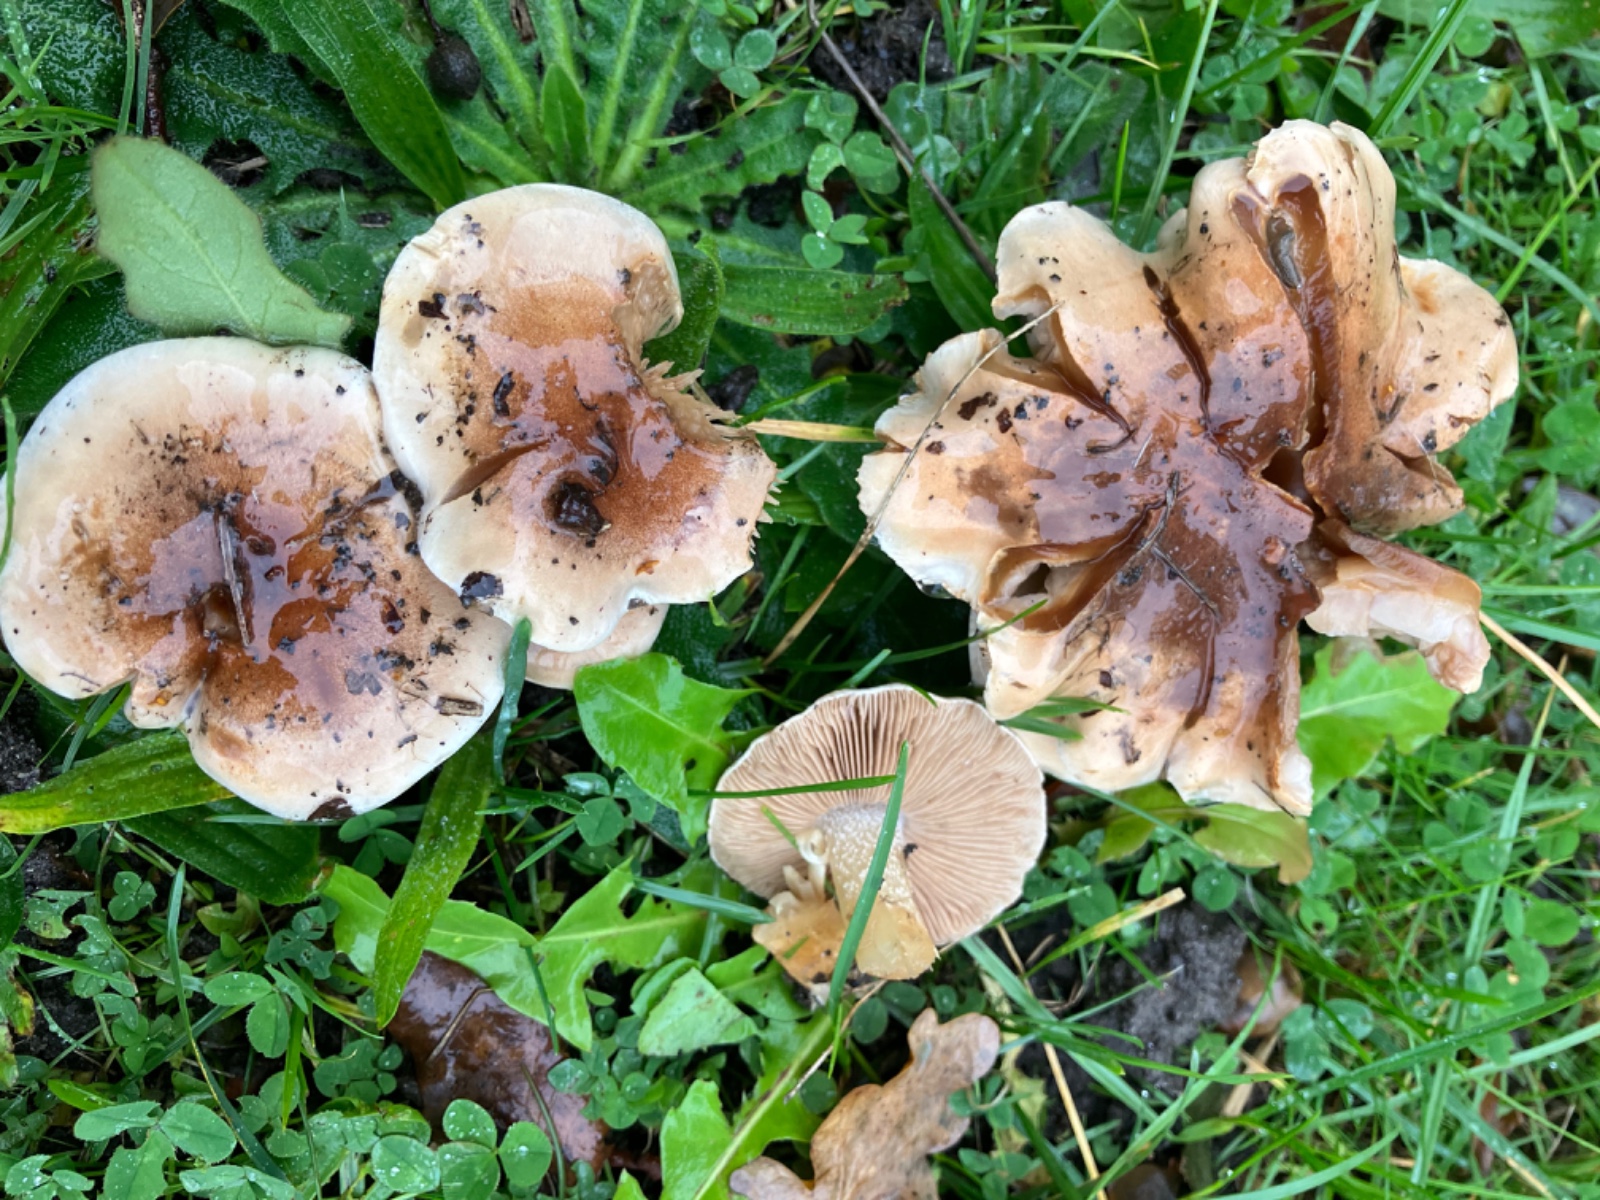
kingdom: Fungi
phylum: Basidiomycota
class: Agaricomycetes
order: Agaricales
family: Hymenogastraceae
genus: Hebeloma
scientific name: Hebeloma
